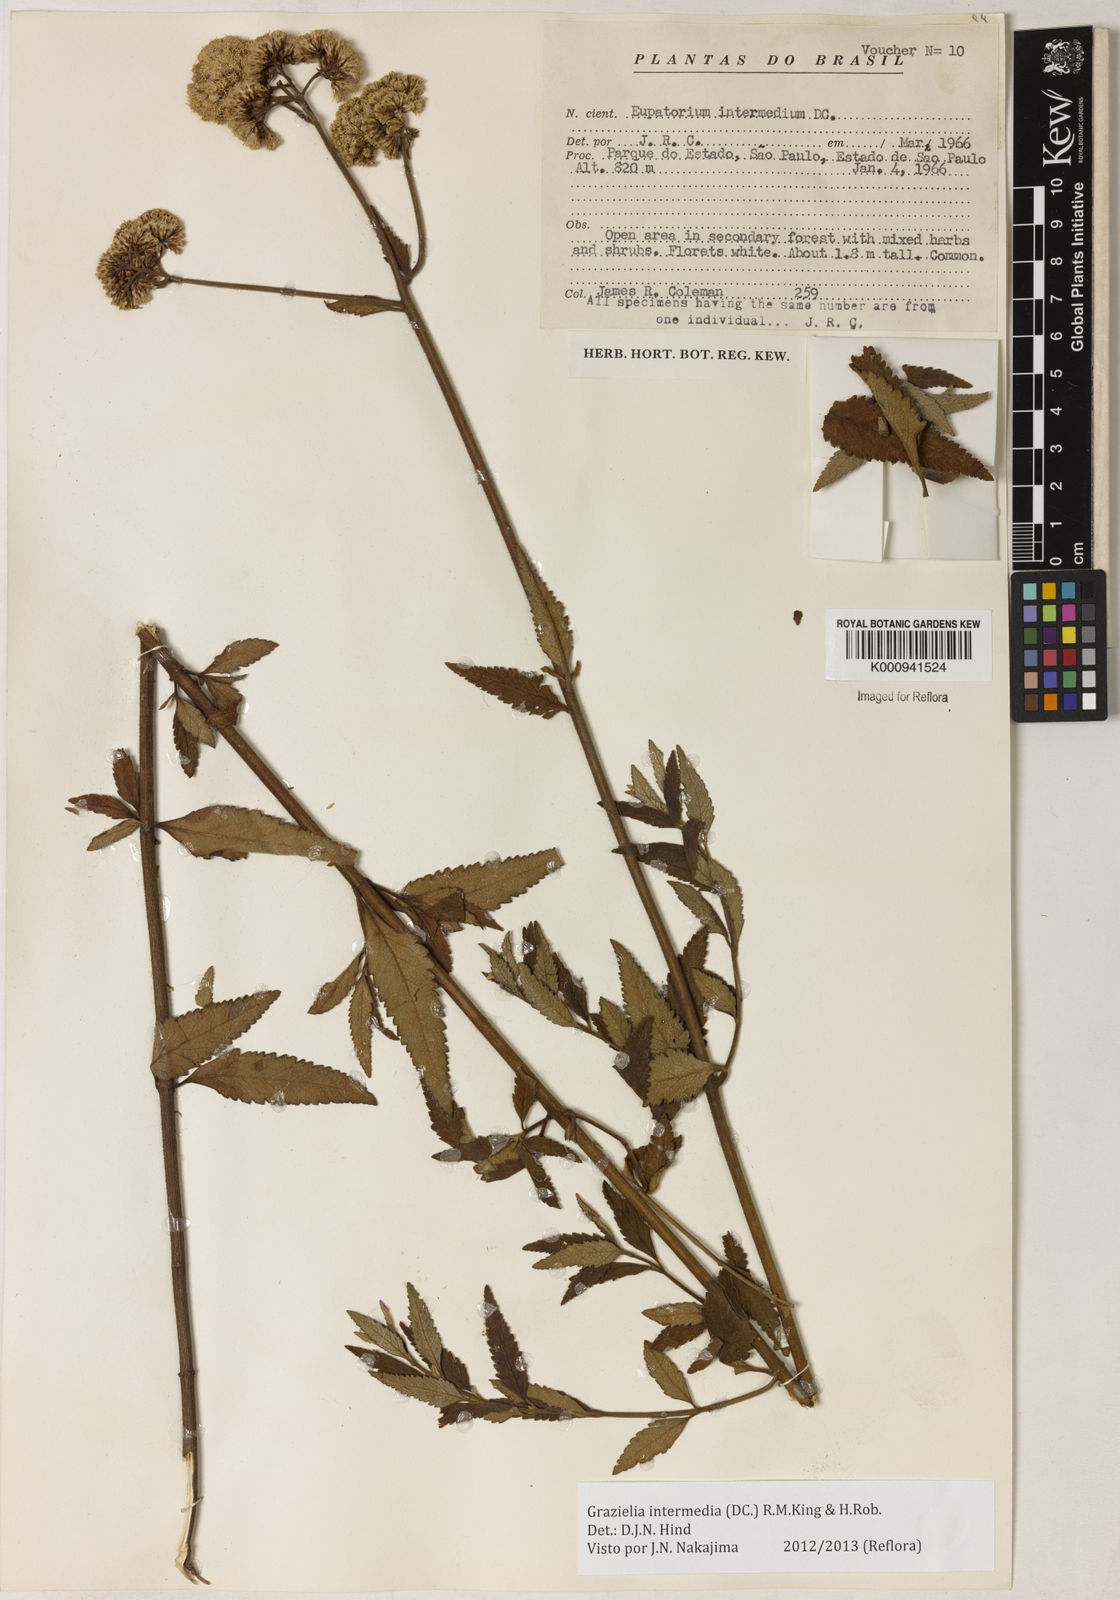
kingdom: Plantae
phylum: Tracheophyta
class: Magnoliopsida
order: Asterales
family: Asteraceae
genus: Grazielia
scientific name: Grazielia intermedia
